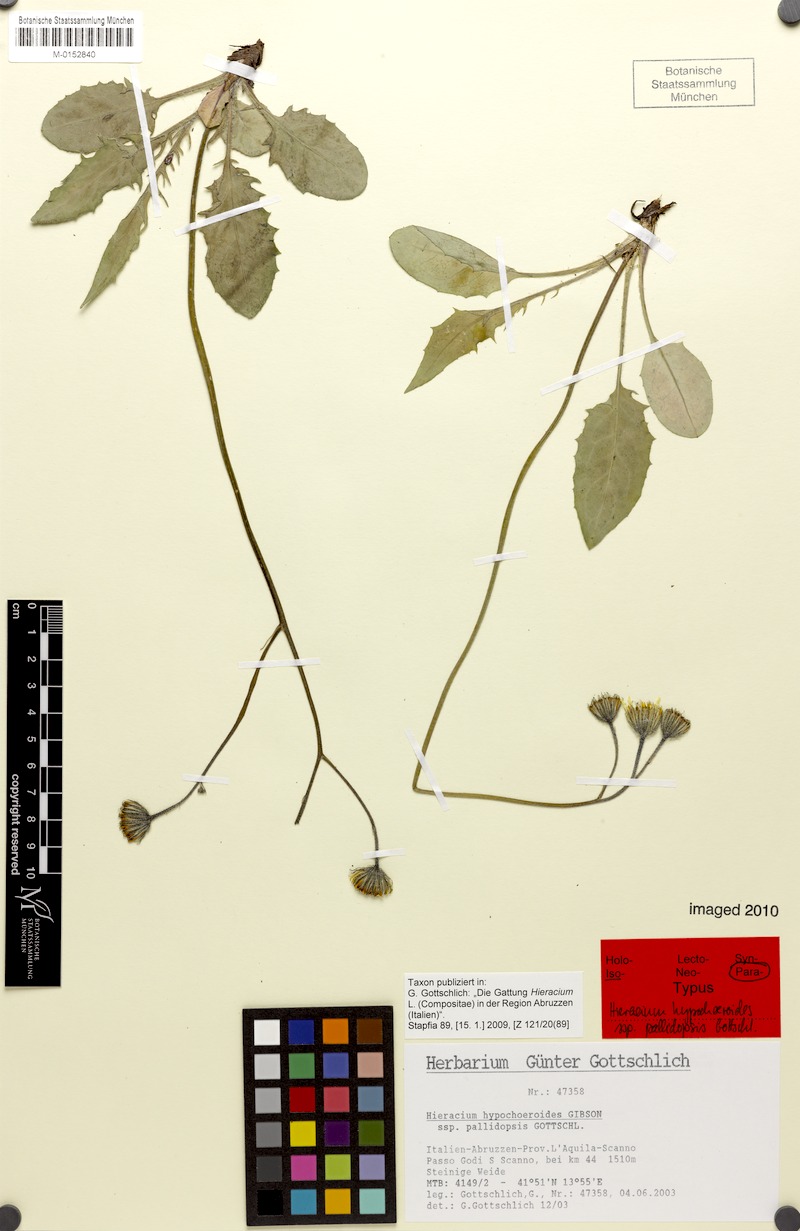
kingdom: Plantae
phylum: Tracheophyta
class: Magnoliopsida
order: Asterales
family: Asteraceae
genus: Hieracium
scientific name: Hieracium hypochoeroides
